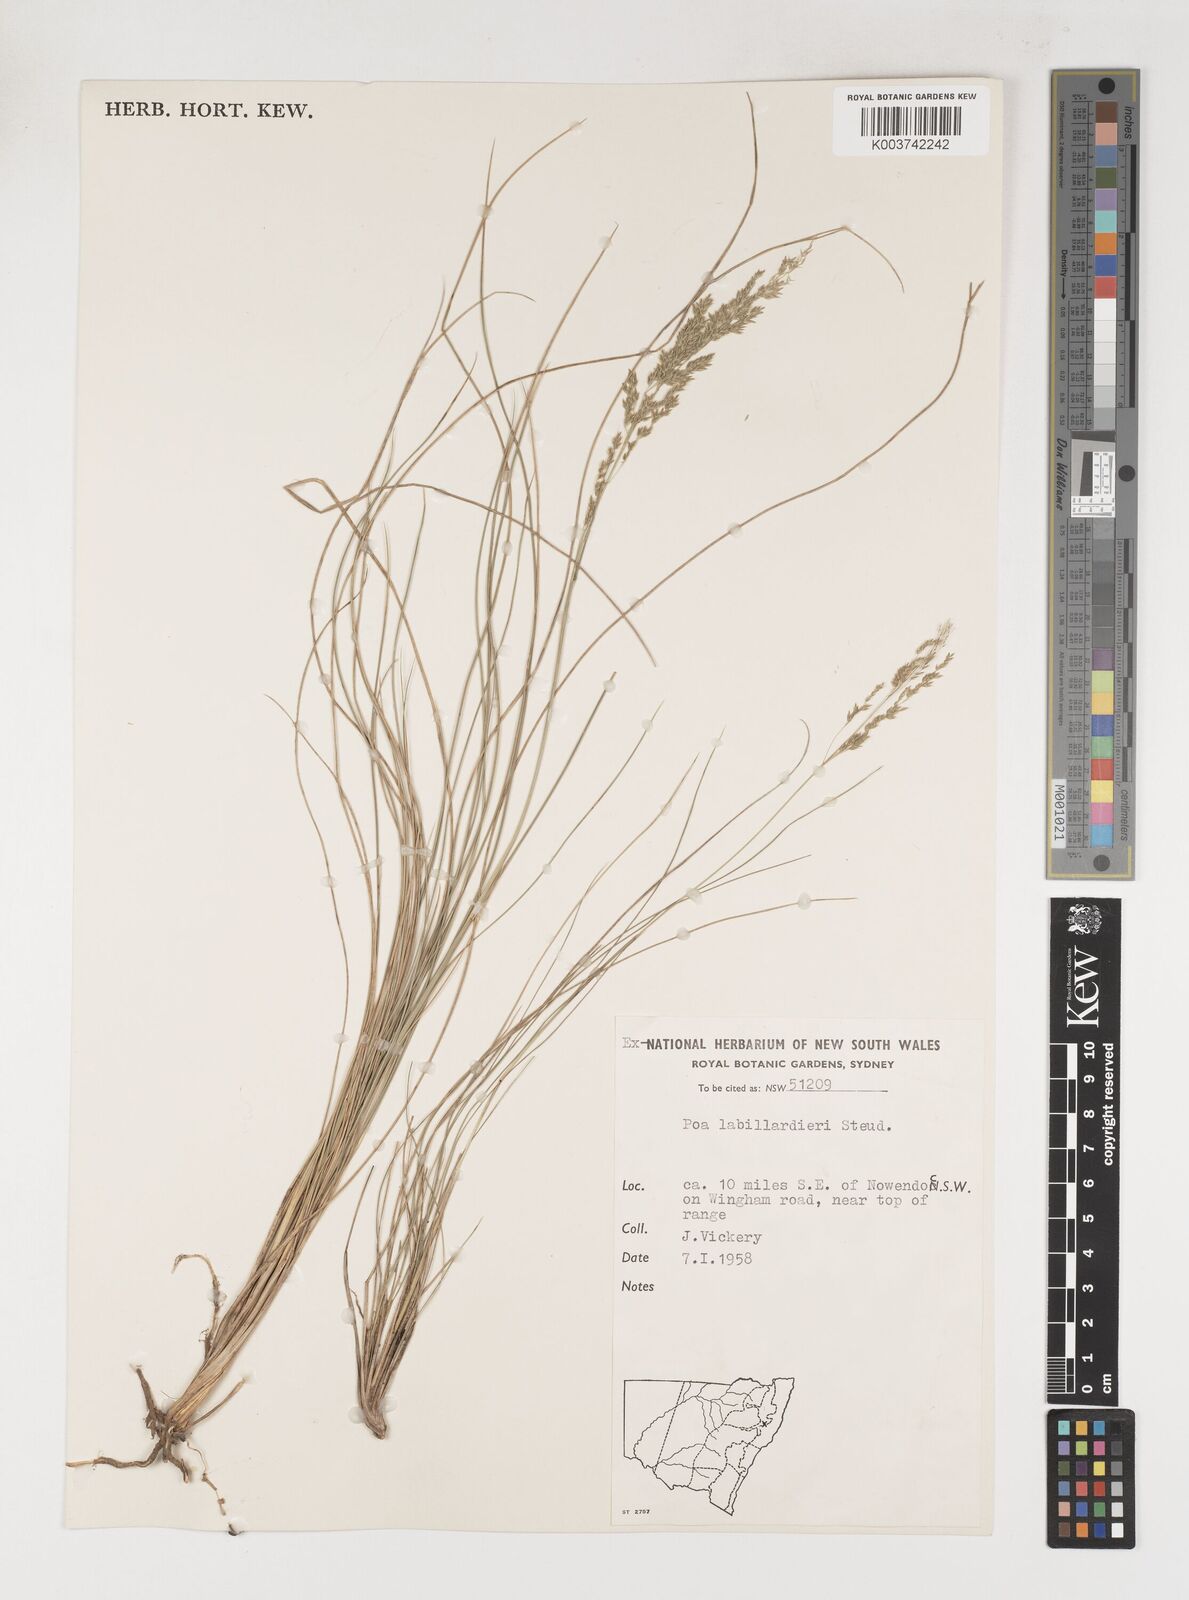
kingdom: Plantae
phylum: Tracheophyta
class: Liliopsida
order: Poales
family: Poaceae
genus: Poa
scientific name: Poa labillardierei
